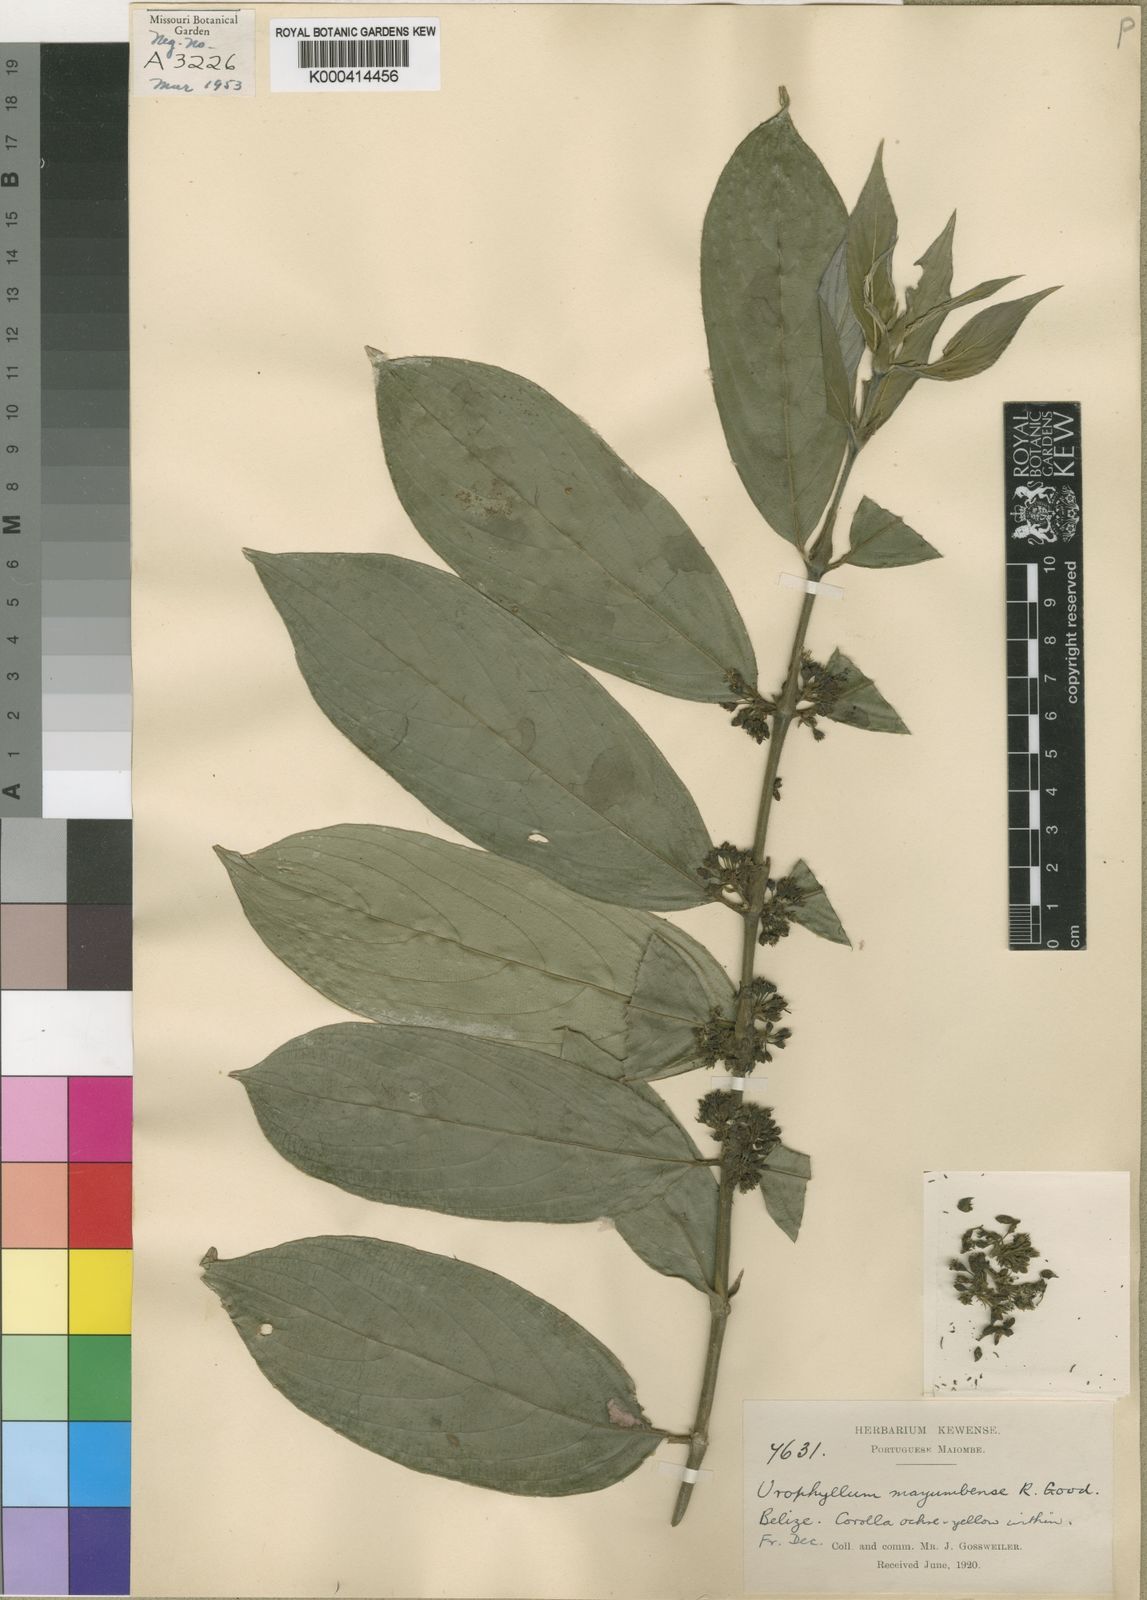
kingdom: Plantae
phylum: Tracheophyta
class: Magnoliopsida
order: Gentianales
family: Rubiaceae
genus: Pauridiantha
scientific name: Pauridiantha mayumbensis
